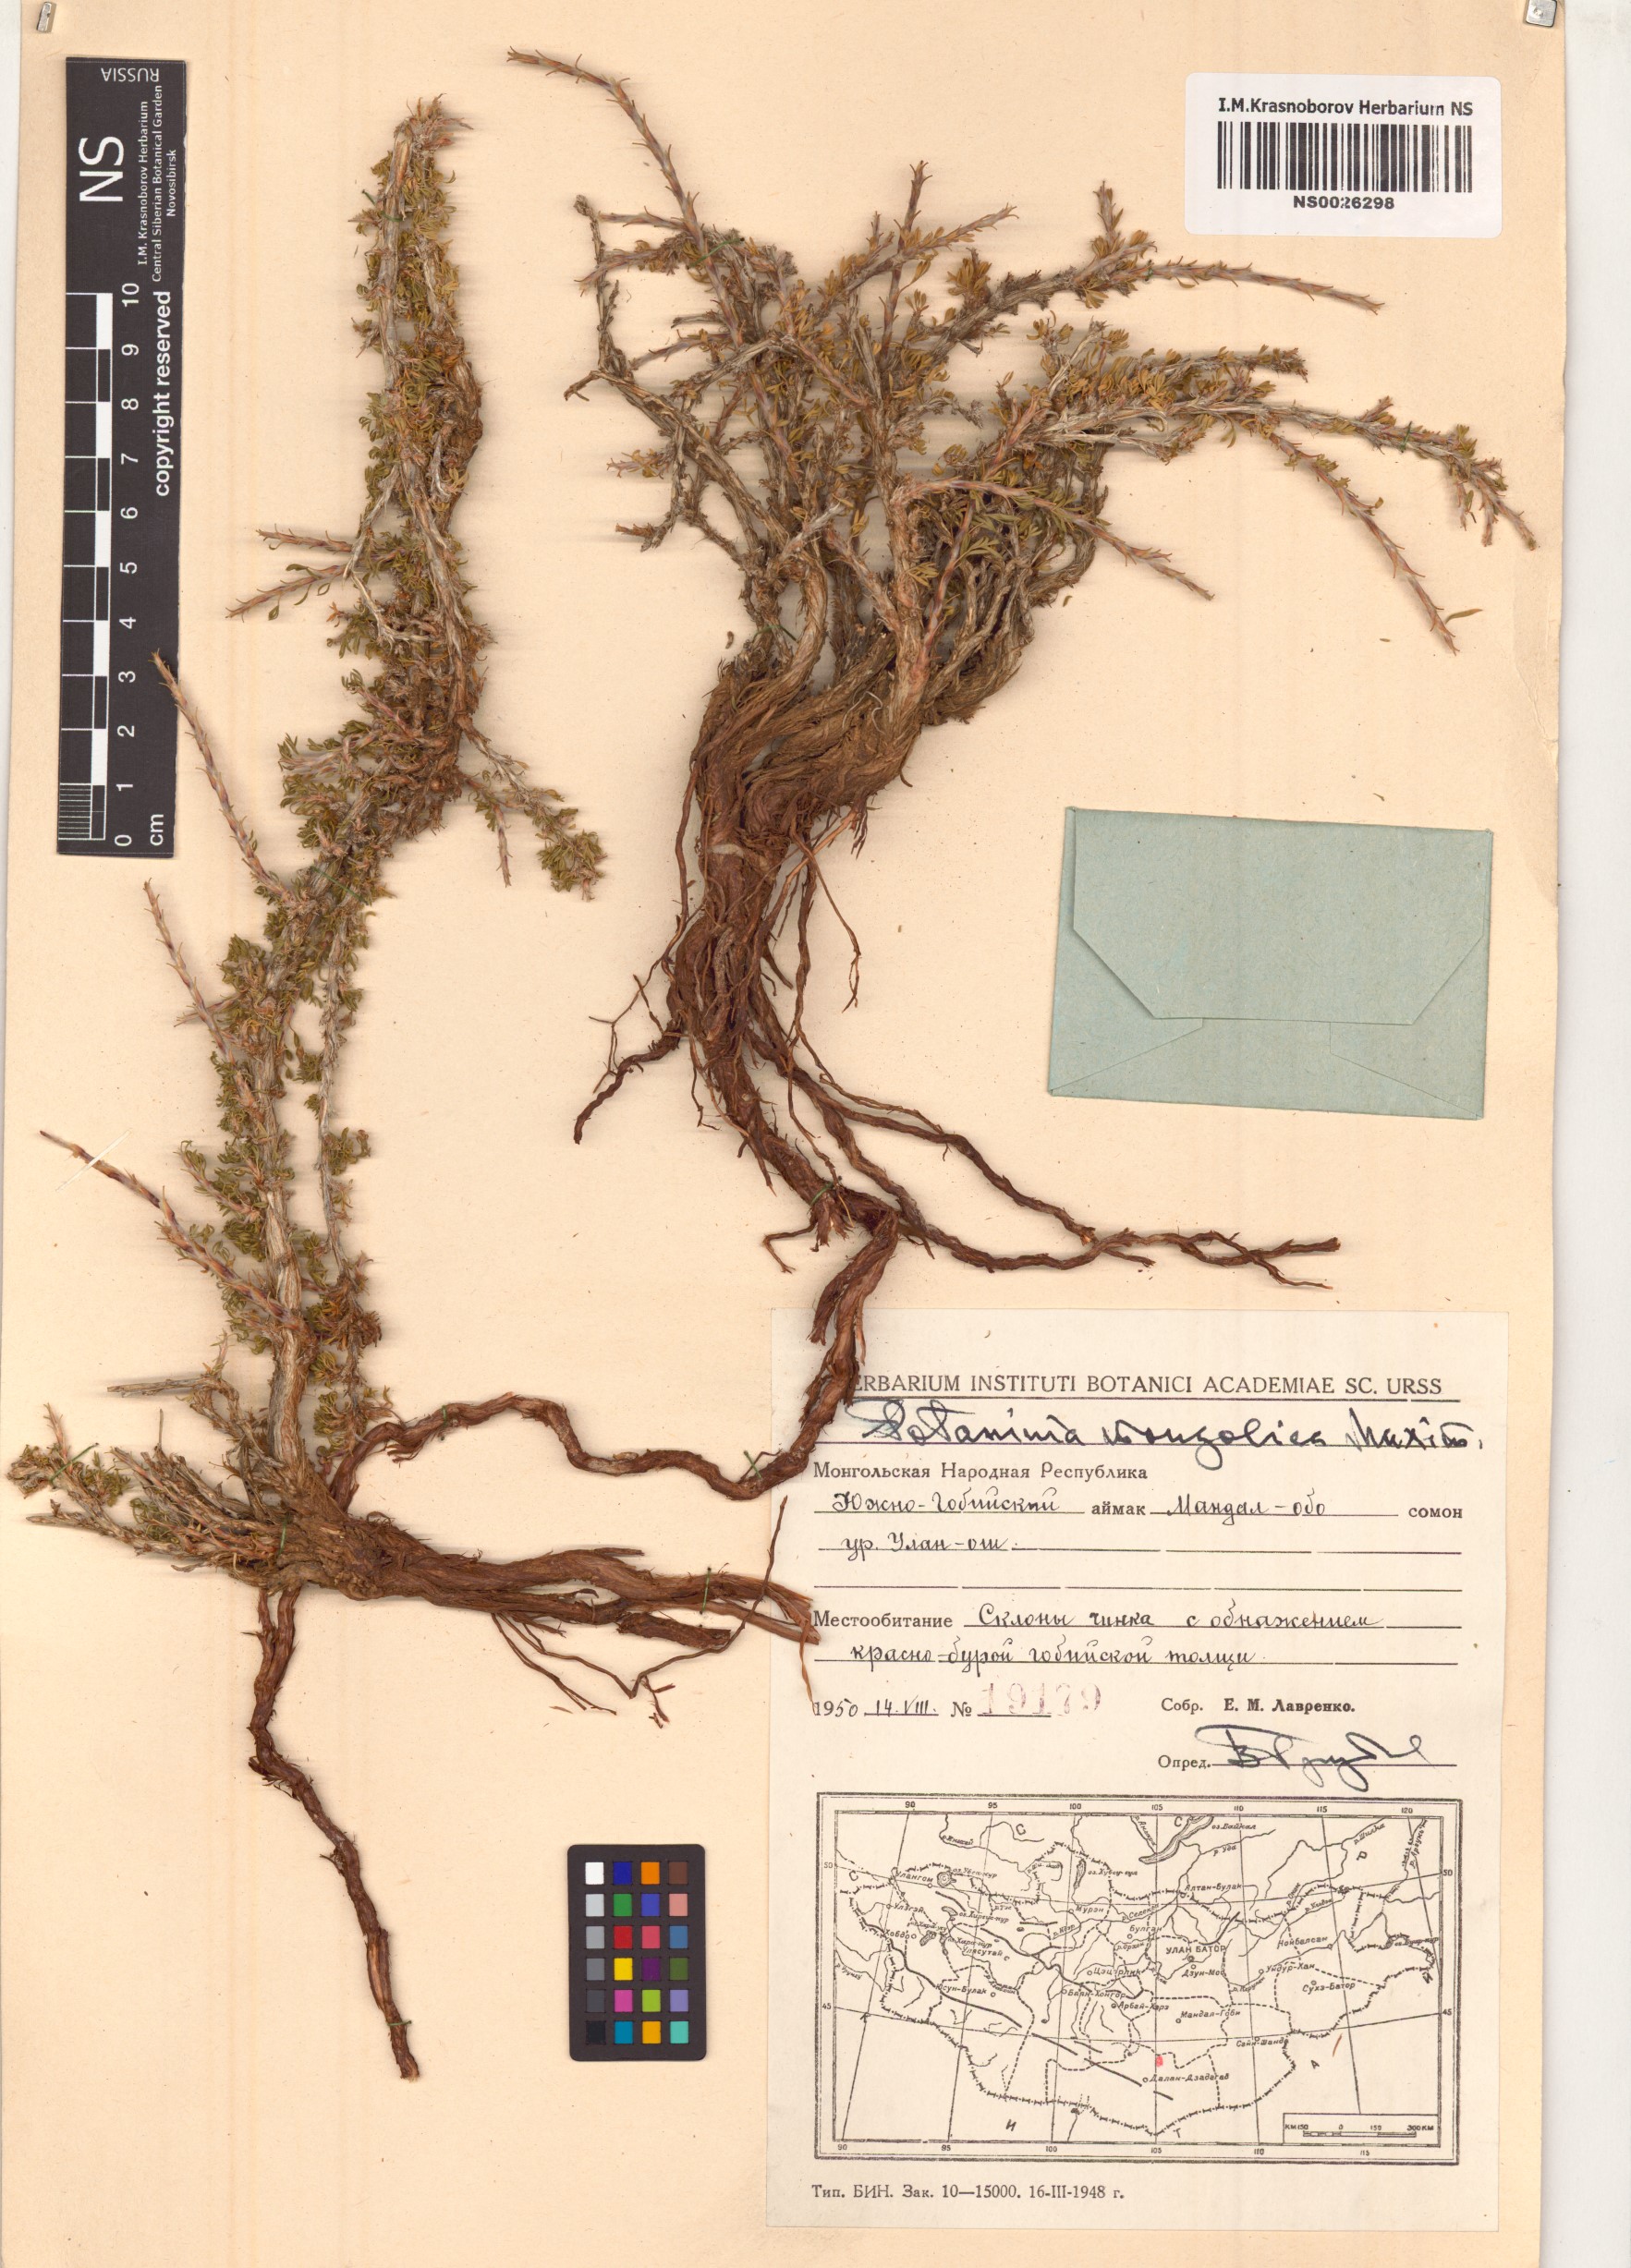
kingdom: Plantae
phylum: Tracheophyta
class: Magnoliopsida
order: Rosales
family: Rosaceae
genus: Potaninia
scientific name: Potaninia mongolica
